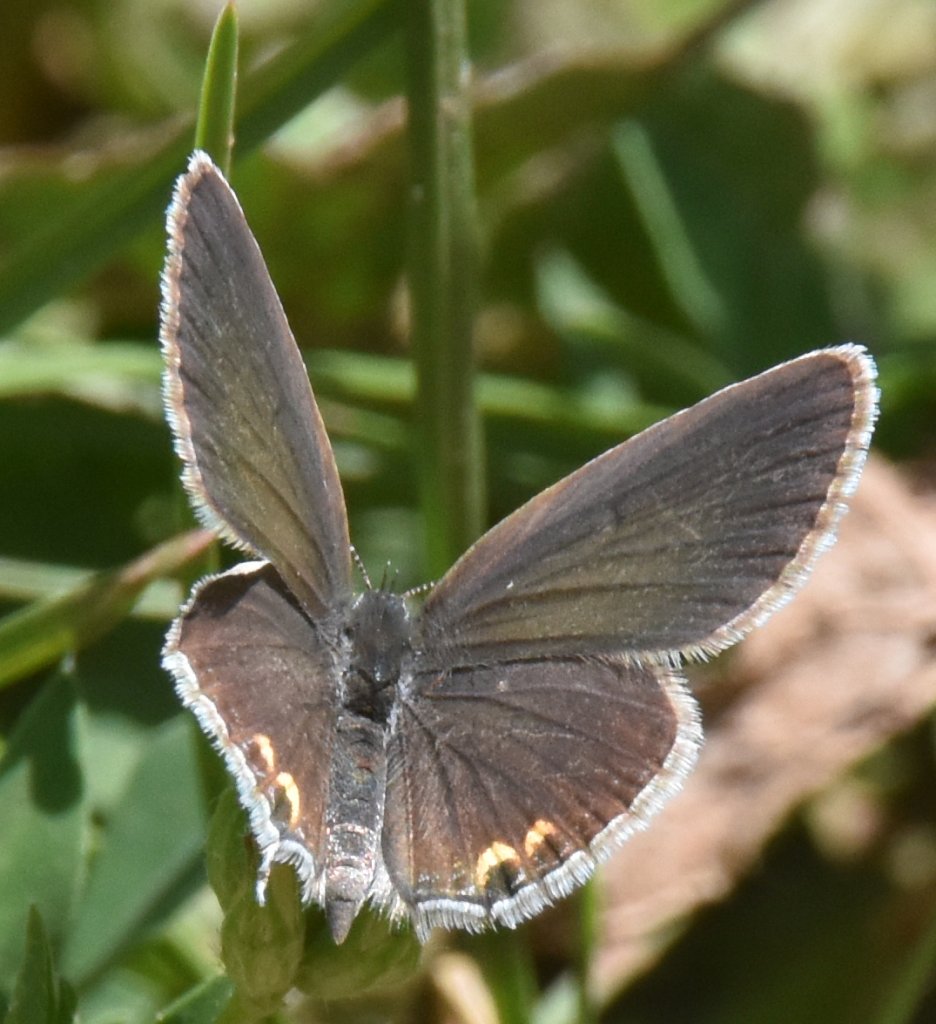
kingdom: Animalia
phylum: Arthropoda
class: Insecta
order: Lepidoptera
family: Lycaenidae
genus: Elkalyce
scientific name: Elkalyce comyntas
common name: Eastern Tailed-Blue
